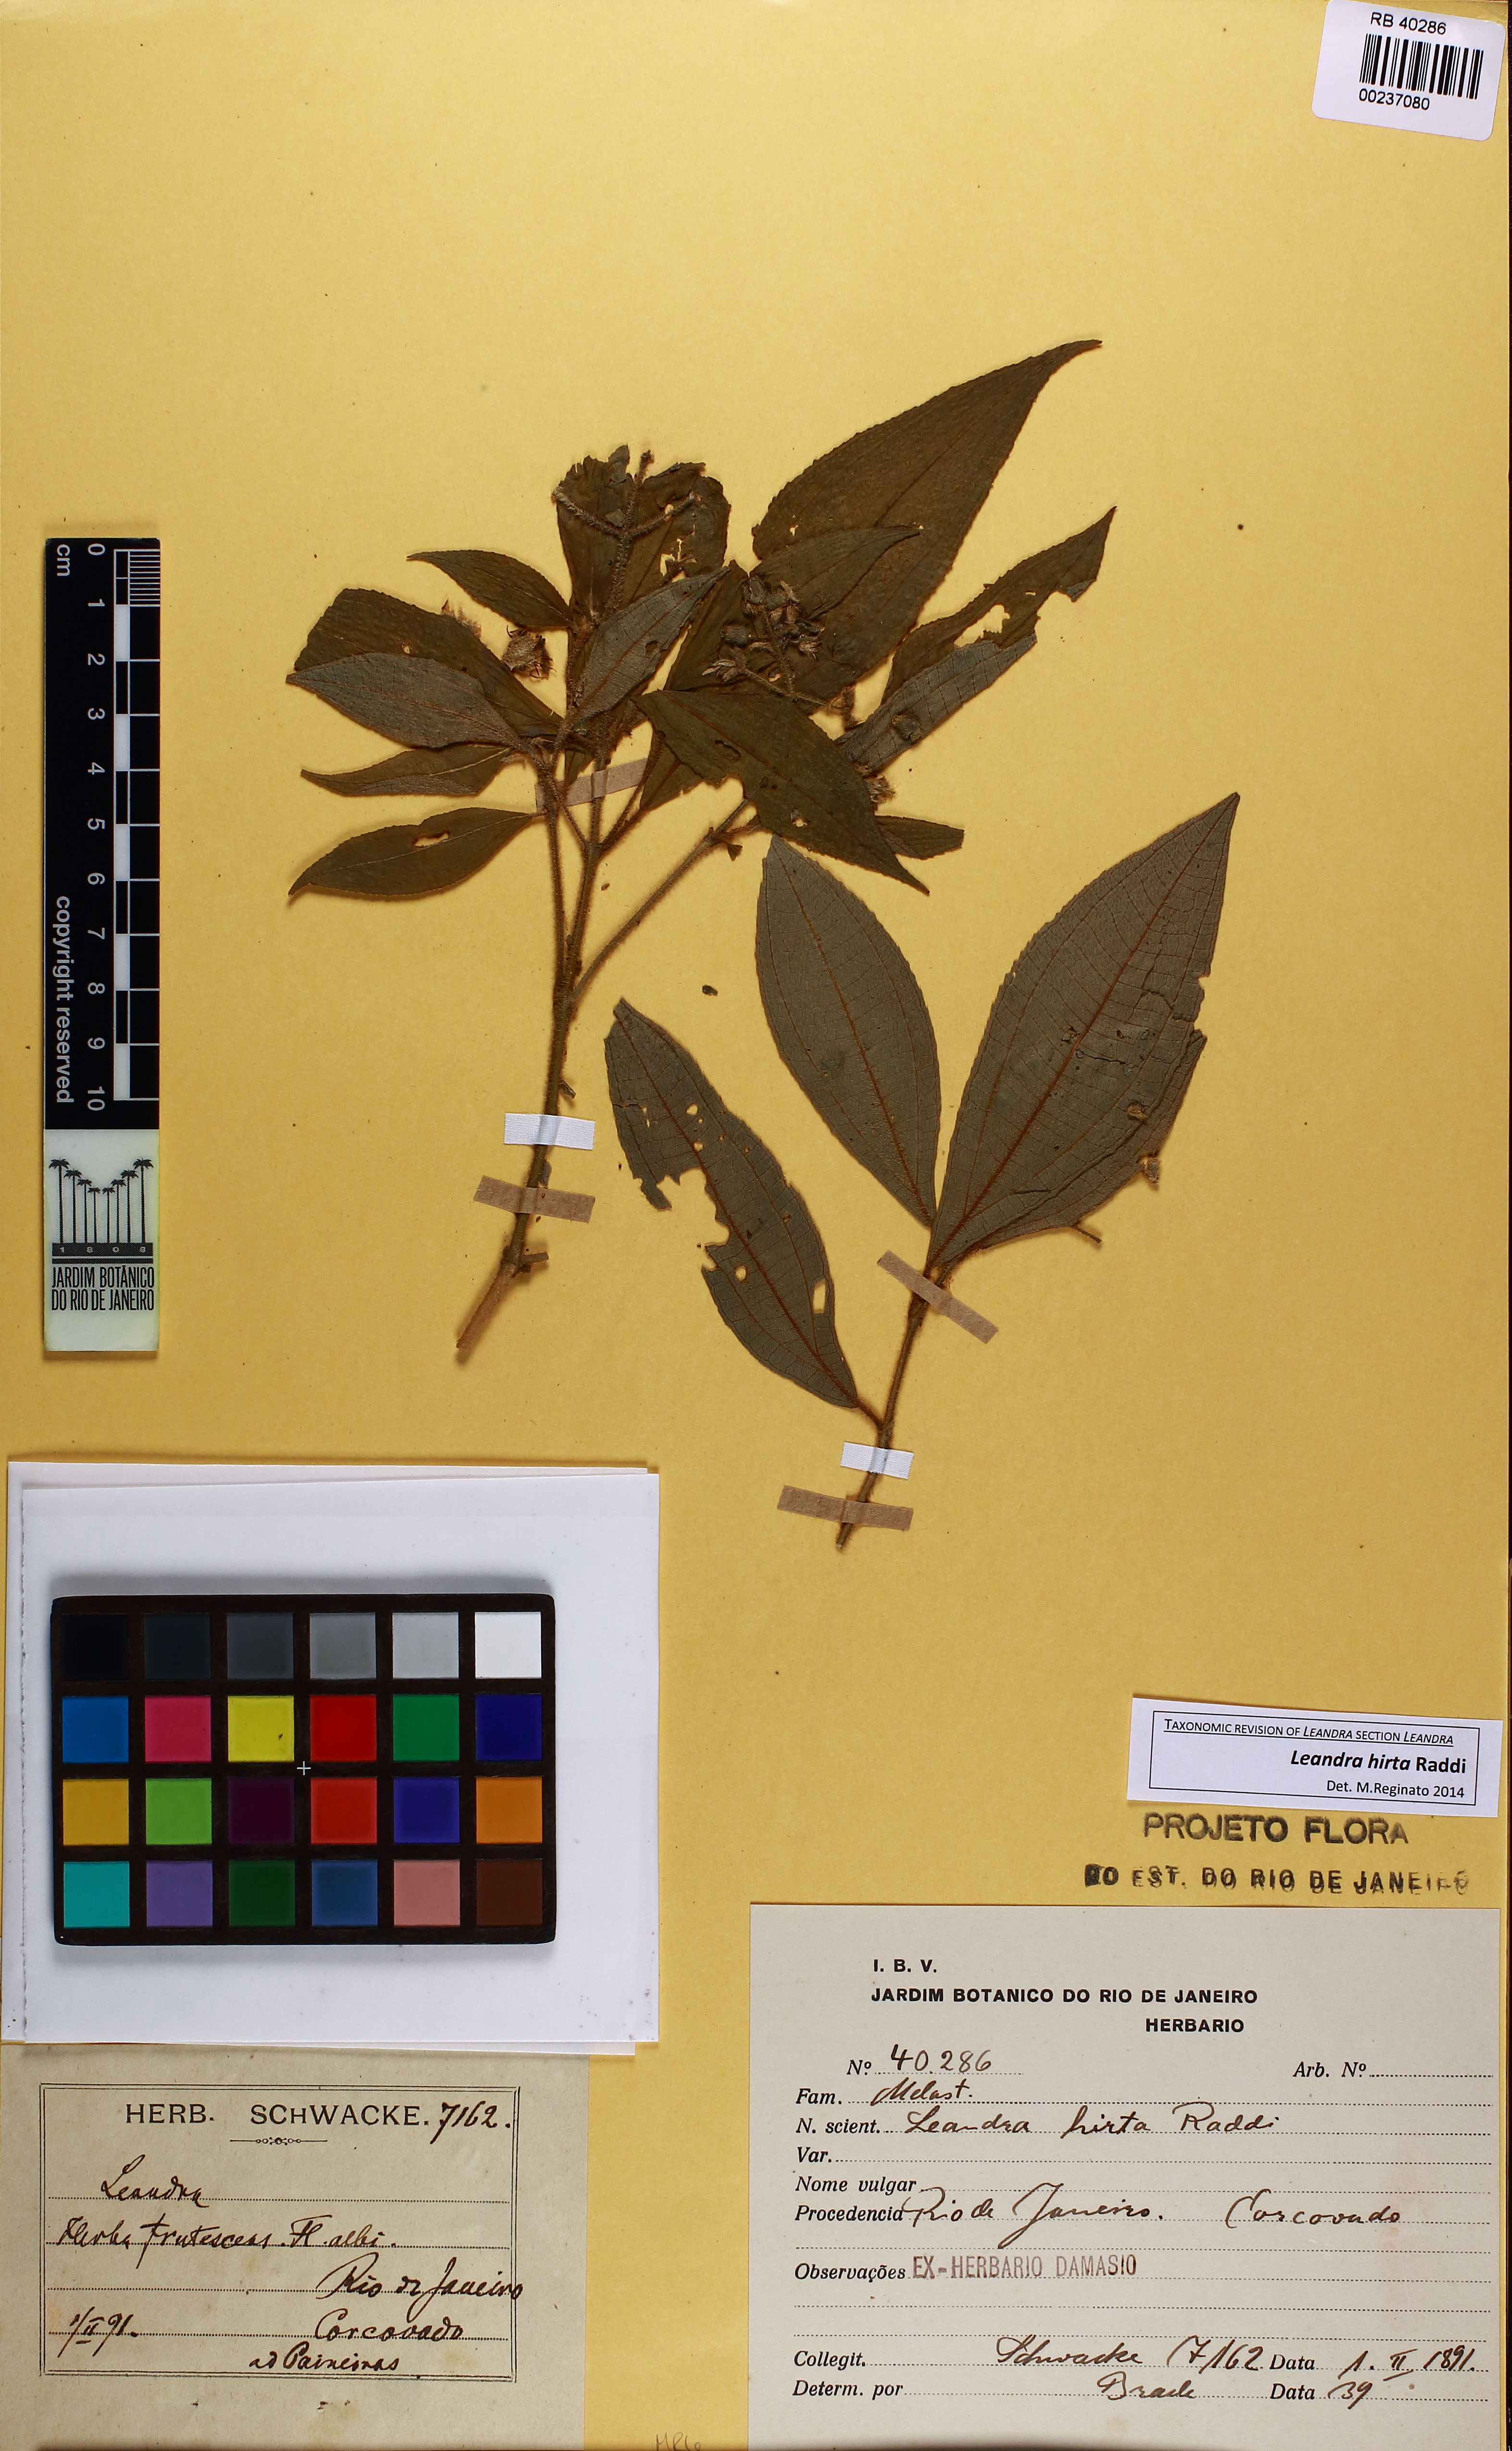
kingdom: Plantae
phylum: Tracheophyta
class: Magnoliopsida
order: Myrtales
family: Melastomataceae
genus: Miconia
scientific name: Miconia dubia
